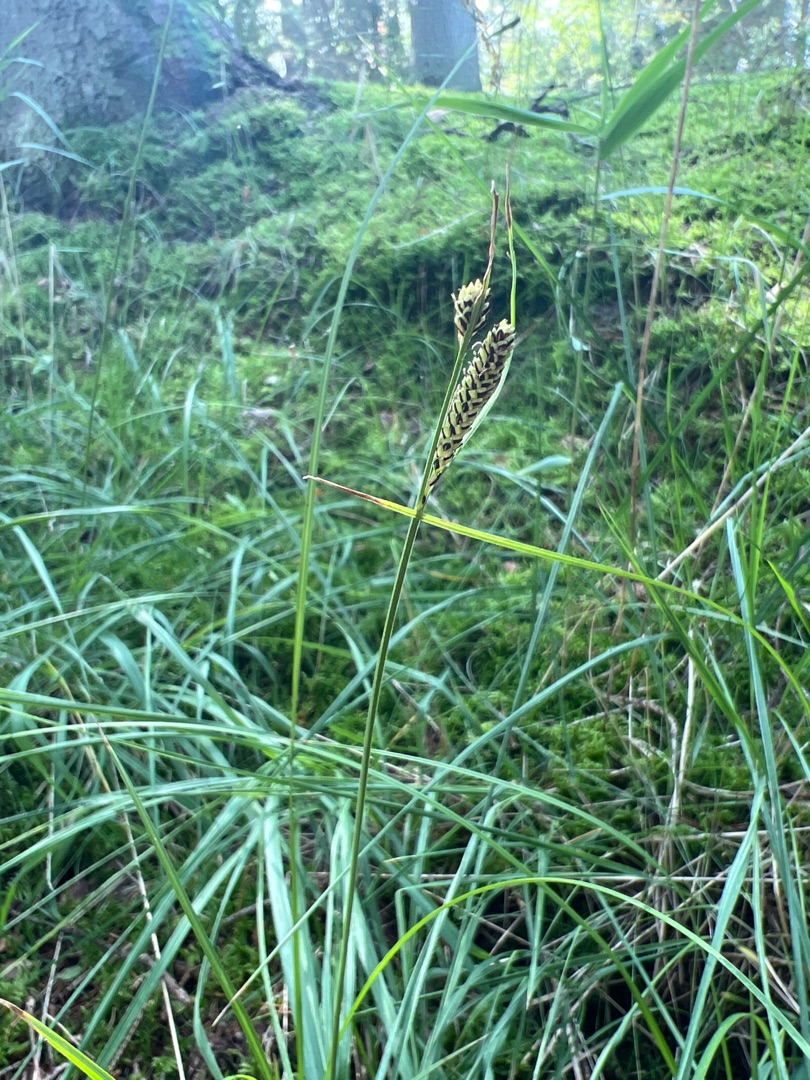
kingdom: Plantae
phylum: Tracheophyta
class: Liliopsida
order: Poales
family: Cyperaceae
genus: Carex
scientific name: Carex nigra
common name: Almindelig star (varietet)
